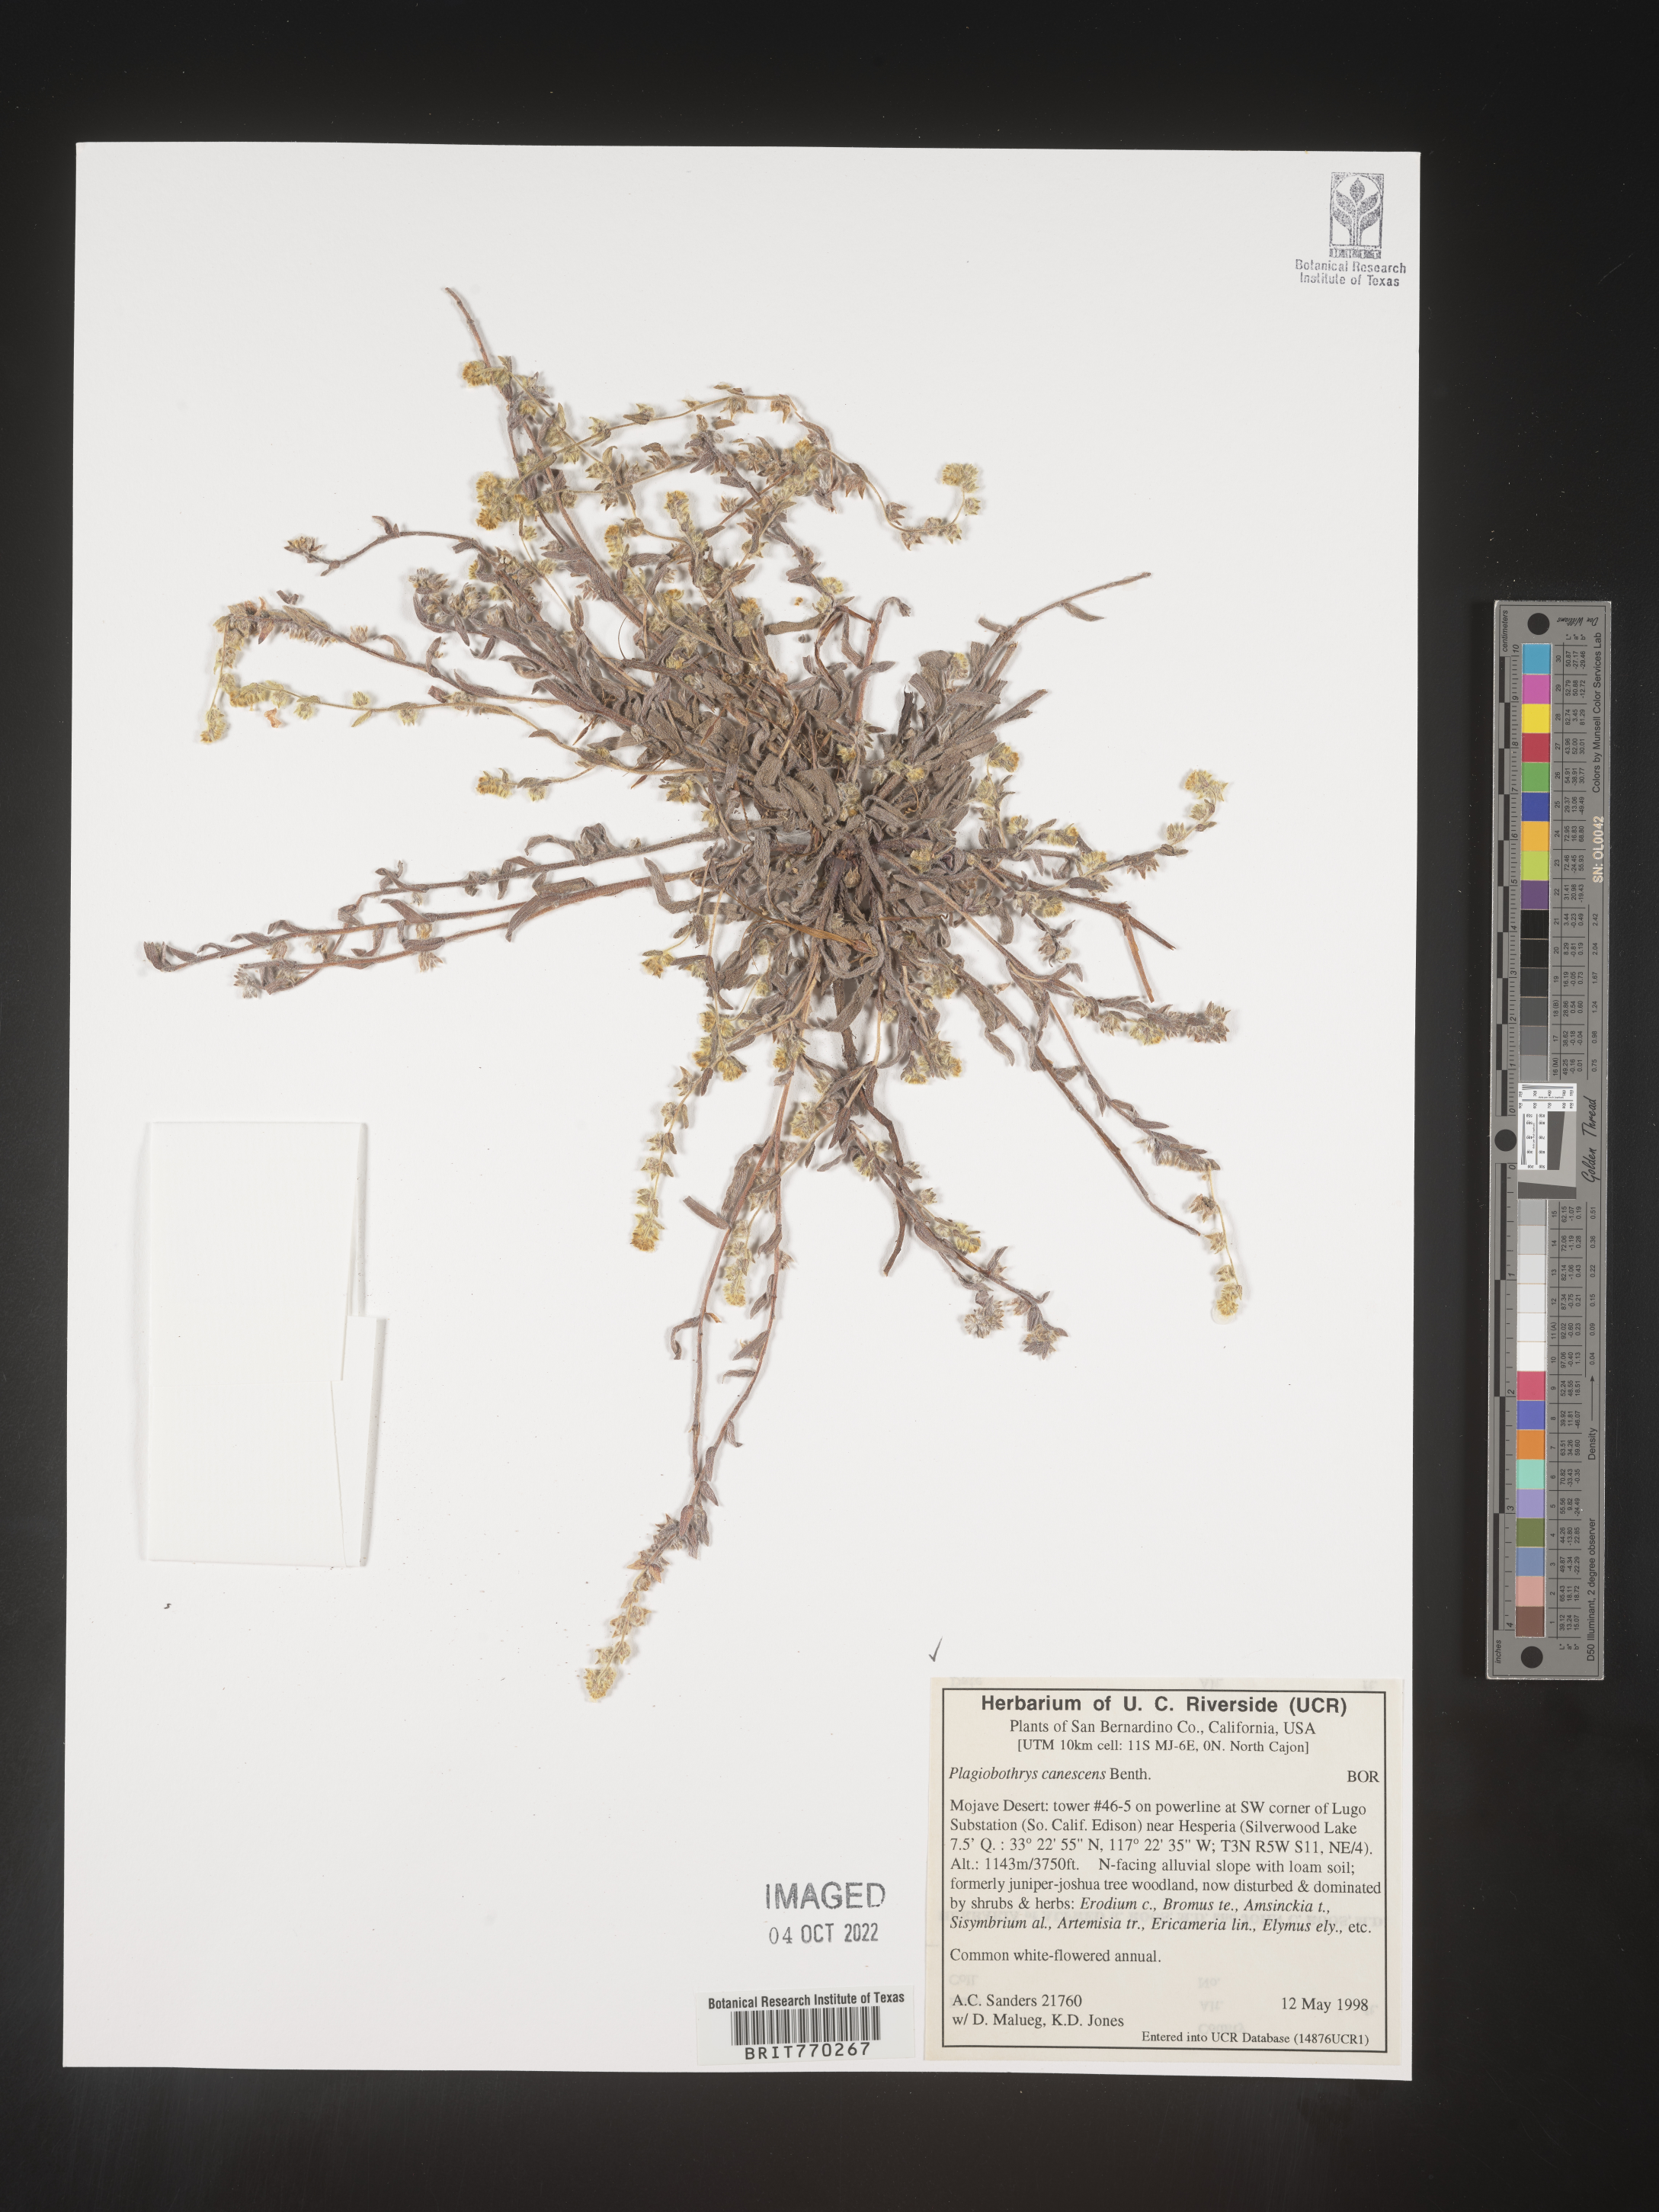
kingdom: Plantae
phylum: Tracheophyta
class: Magnoliopsida
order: Boraginales
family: Boraginaceae
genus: Plagiobothrys
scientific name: Plagiobothrys
